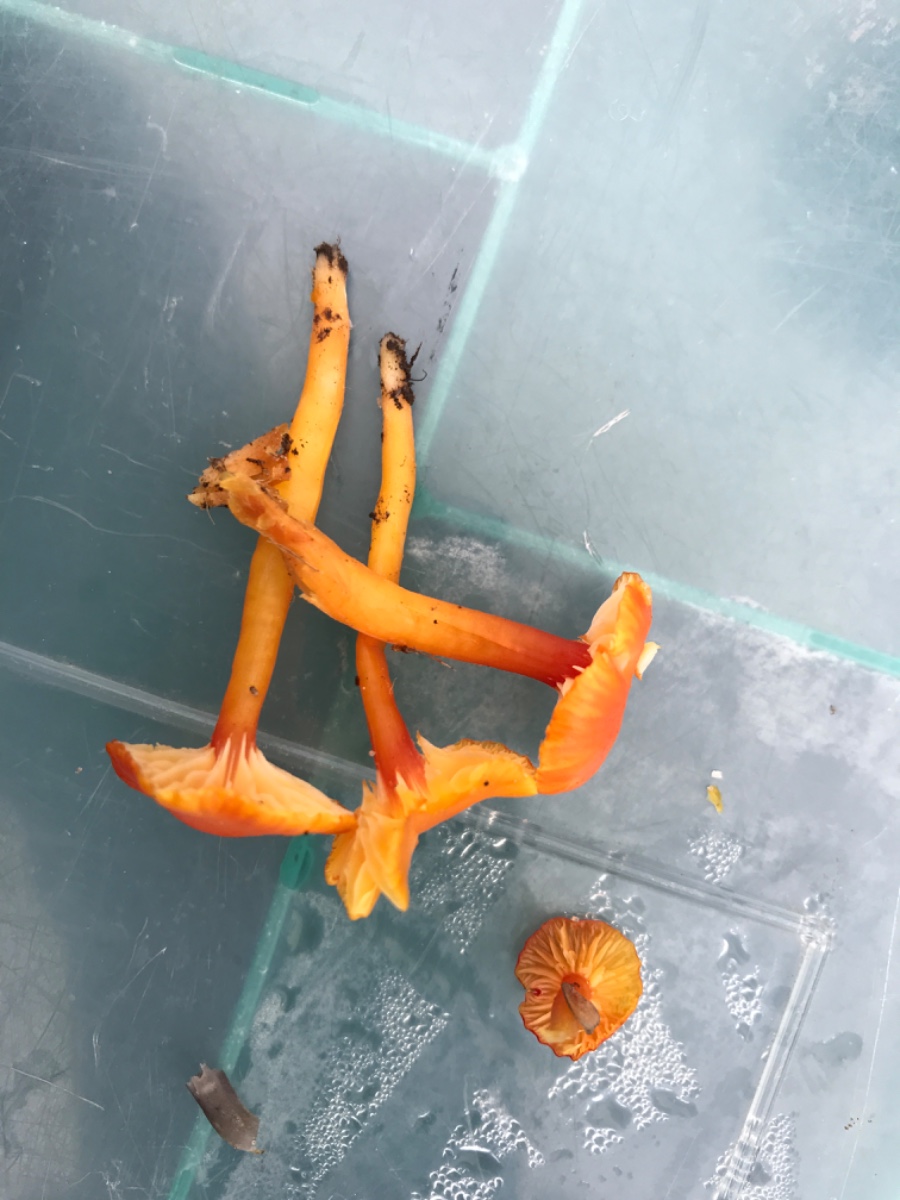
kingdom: Fungi
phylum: Basidiomycota
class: Agaricomycetes
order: Agaricales
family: Hygrophoraceae
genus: Hygrocybe
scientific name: Hygrocybe insipida
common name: liden vokshat
